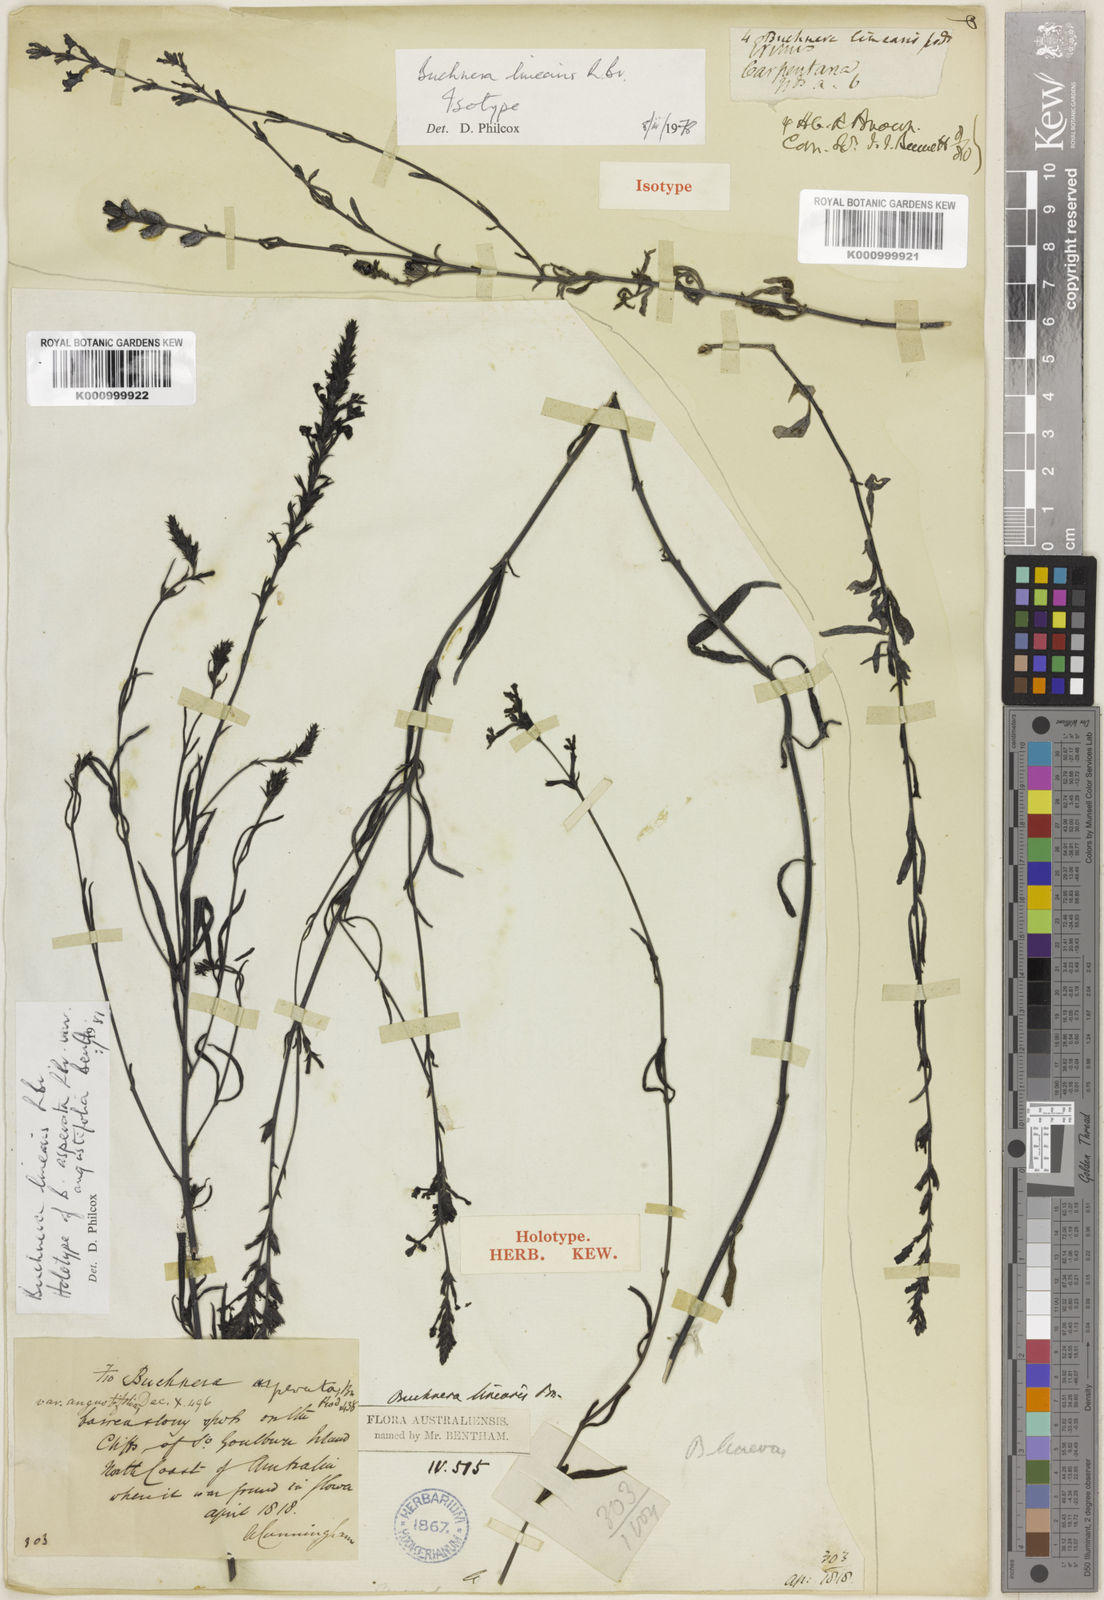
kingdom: Plantae
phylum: Tracheophyta
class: Magnoliopsida
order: Lamiales
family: Orobanchaceae
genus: Buchnera
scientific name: Buchnera linearis
